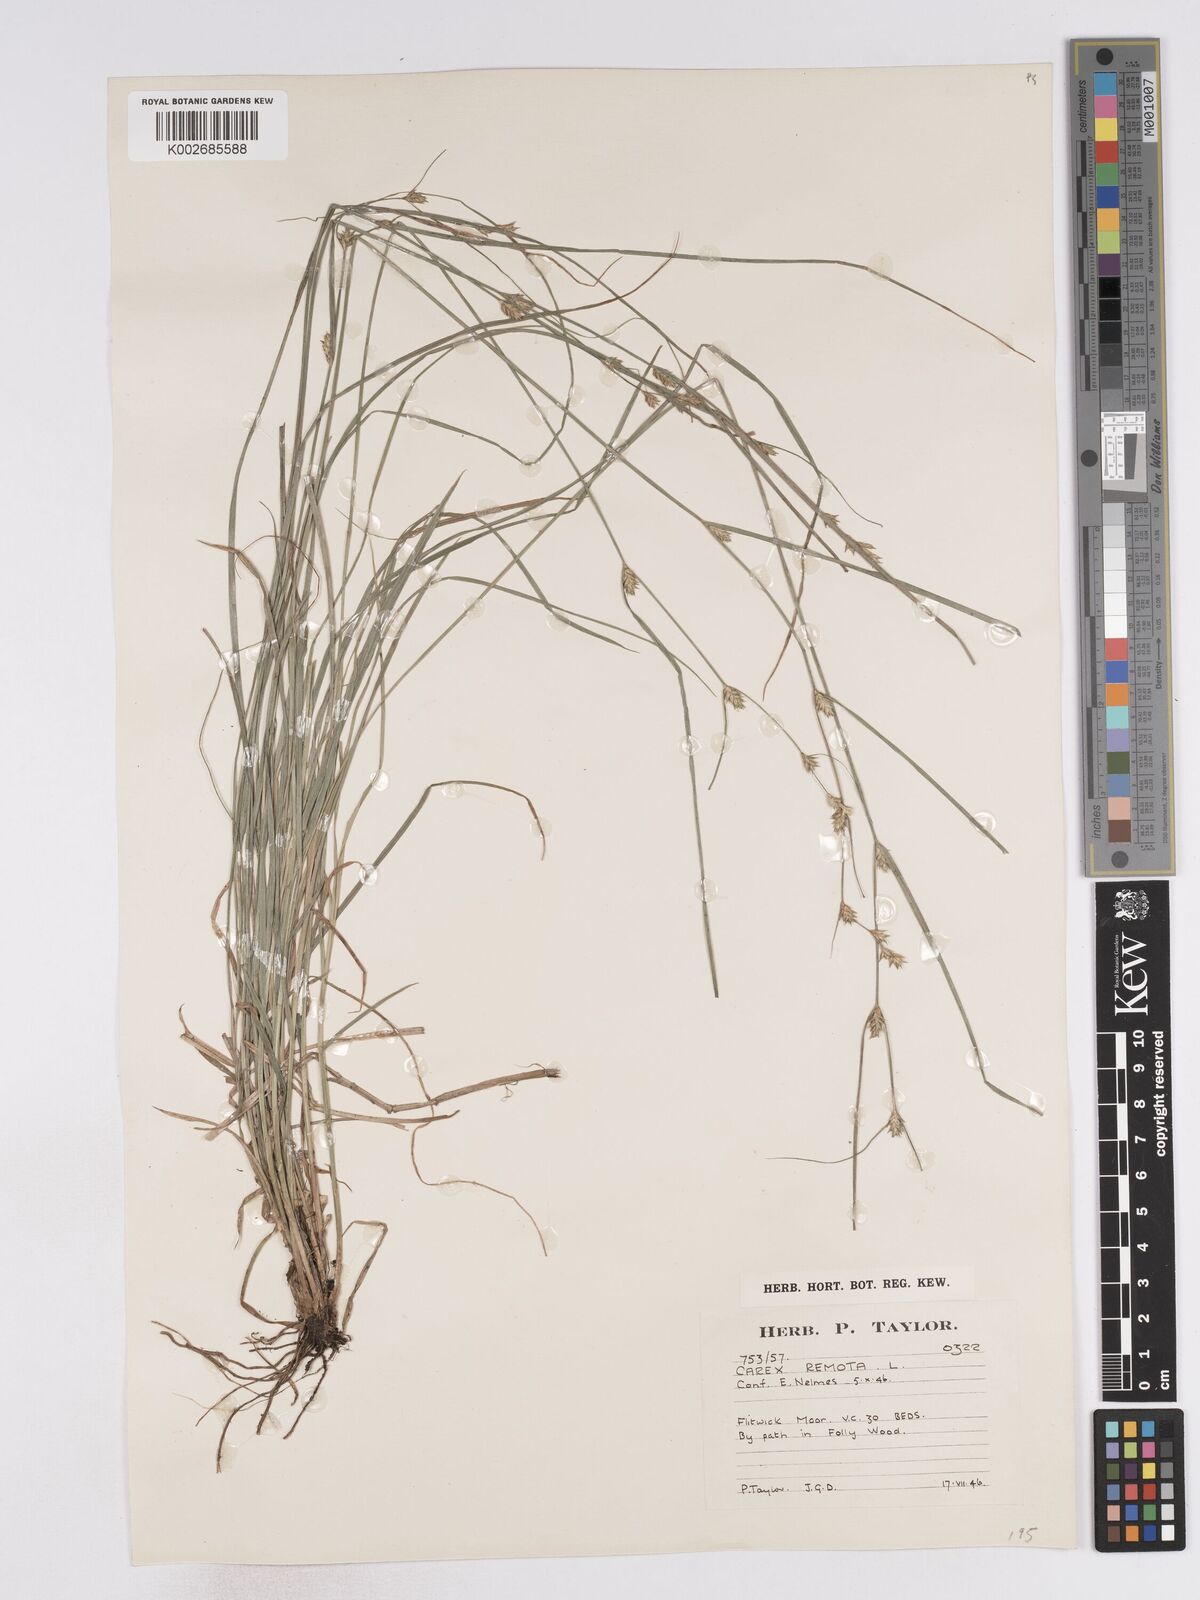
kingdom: Plantae
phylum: Tracheophyta
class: Liliopsida
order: Poales
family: Cyperaceae
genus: Carex
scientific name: Carex remota
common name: Remote sedge
